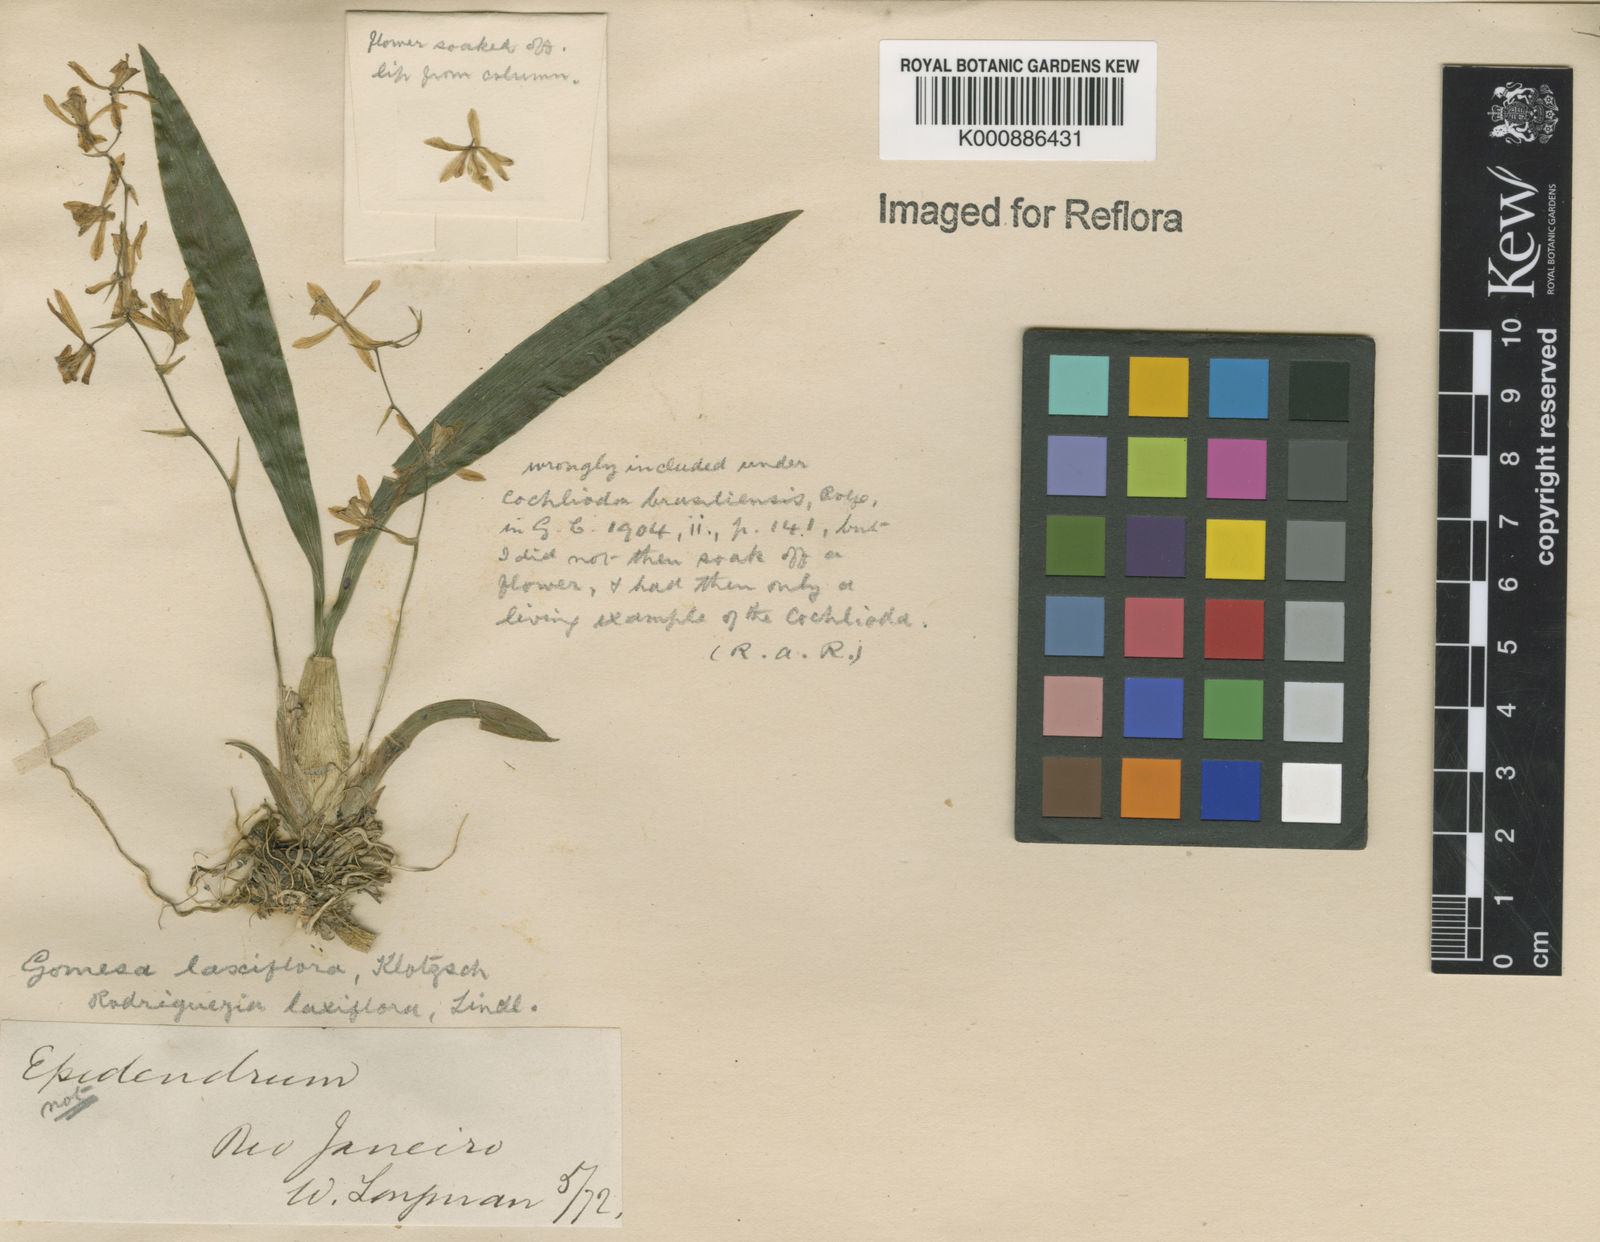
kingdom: Plantae
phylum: Tracheophyta
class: Liliopsida
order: Asparagales
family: Orchidaceae
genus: Gomesa
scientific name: Gomesa laxiflora
